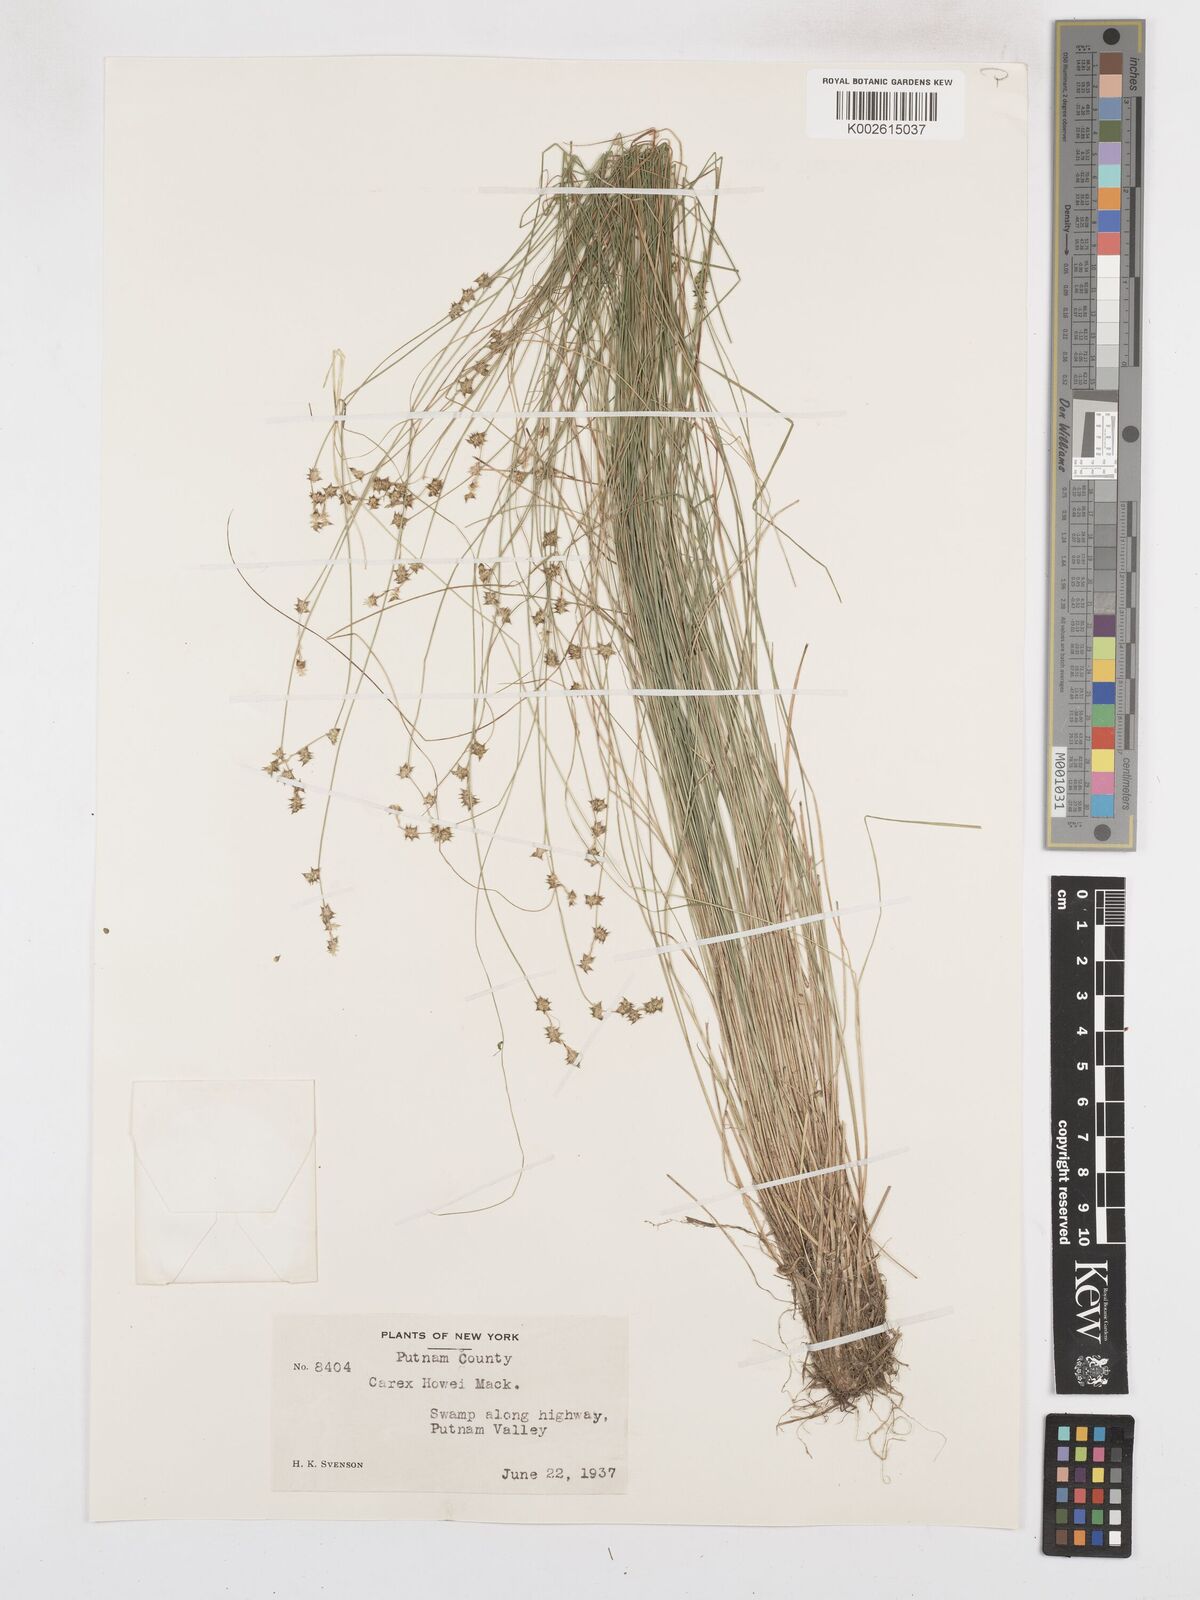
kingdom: Plantae
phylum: Tracheophyta
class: Liliopsida
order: Poales
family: Cyperaceae
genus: Carex
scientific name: Carex atlantica
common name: Atlantic sedge
